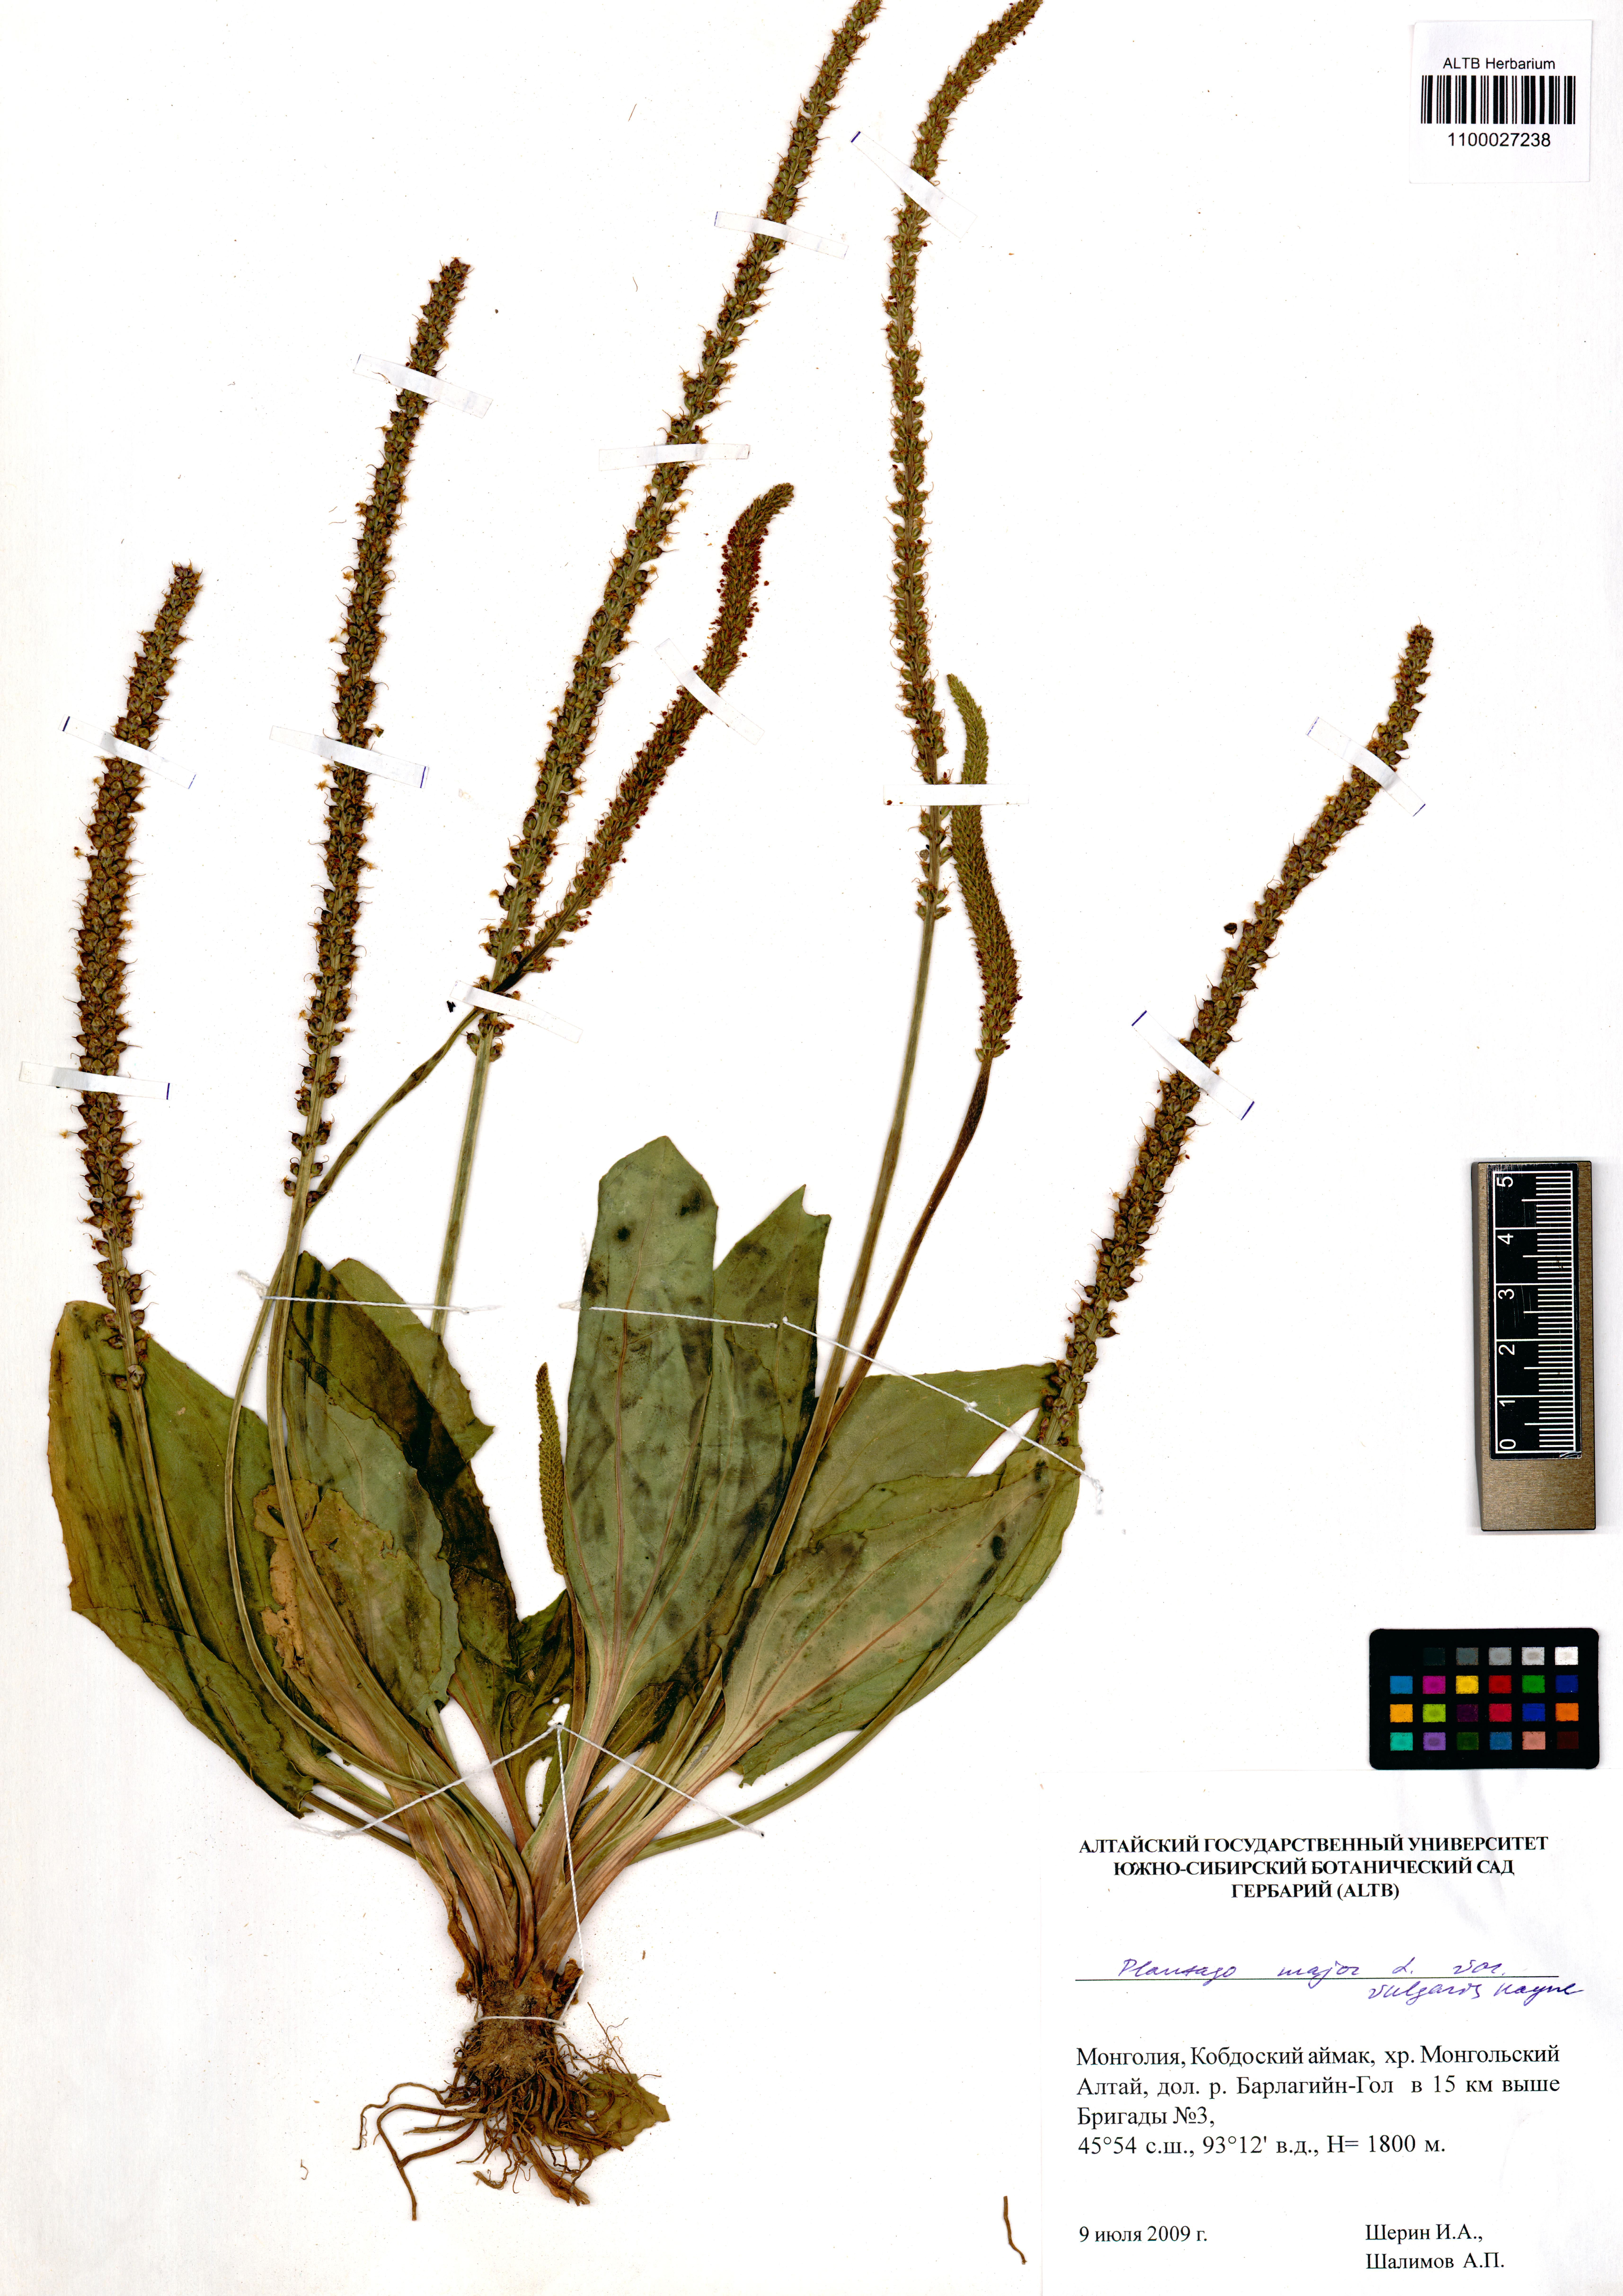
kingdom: Plantae
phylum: Tracheophyta
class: Magnoliopsida
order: Lamiales
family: Plantaginaceae
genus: Plantago
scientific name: Plantago major
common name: Common plantain
